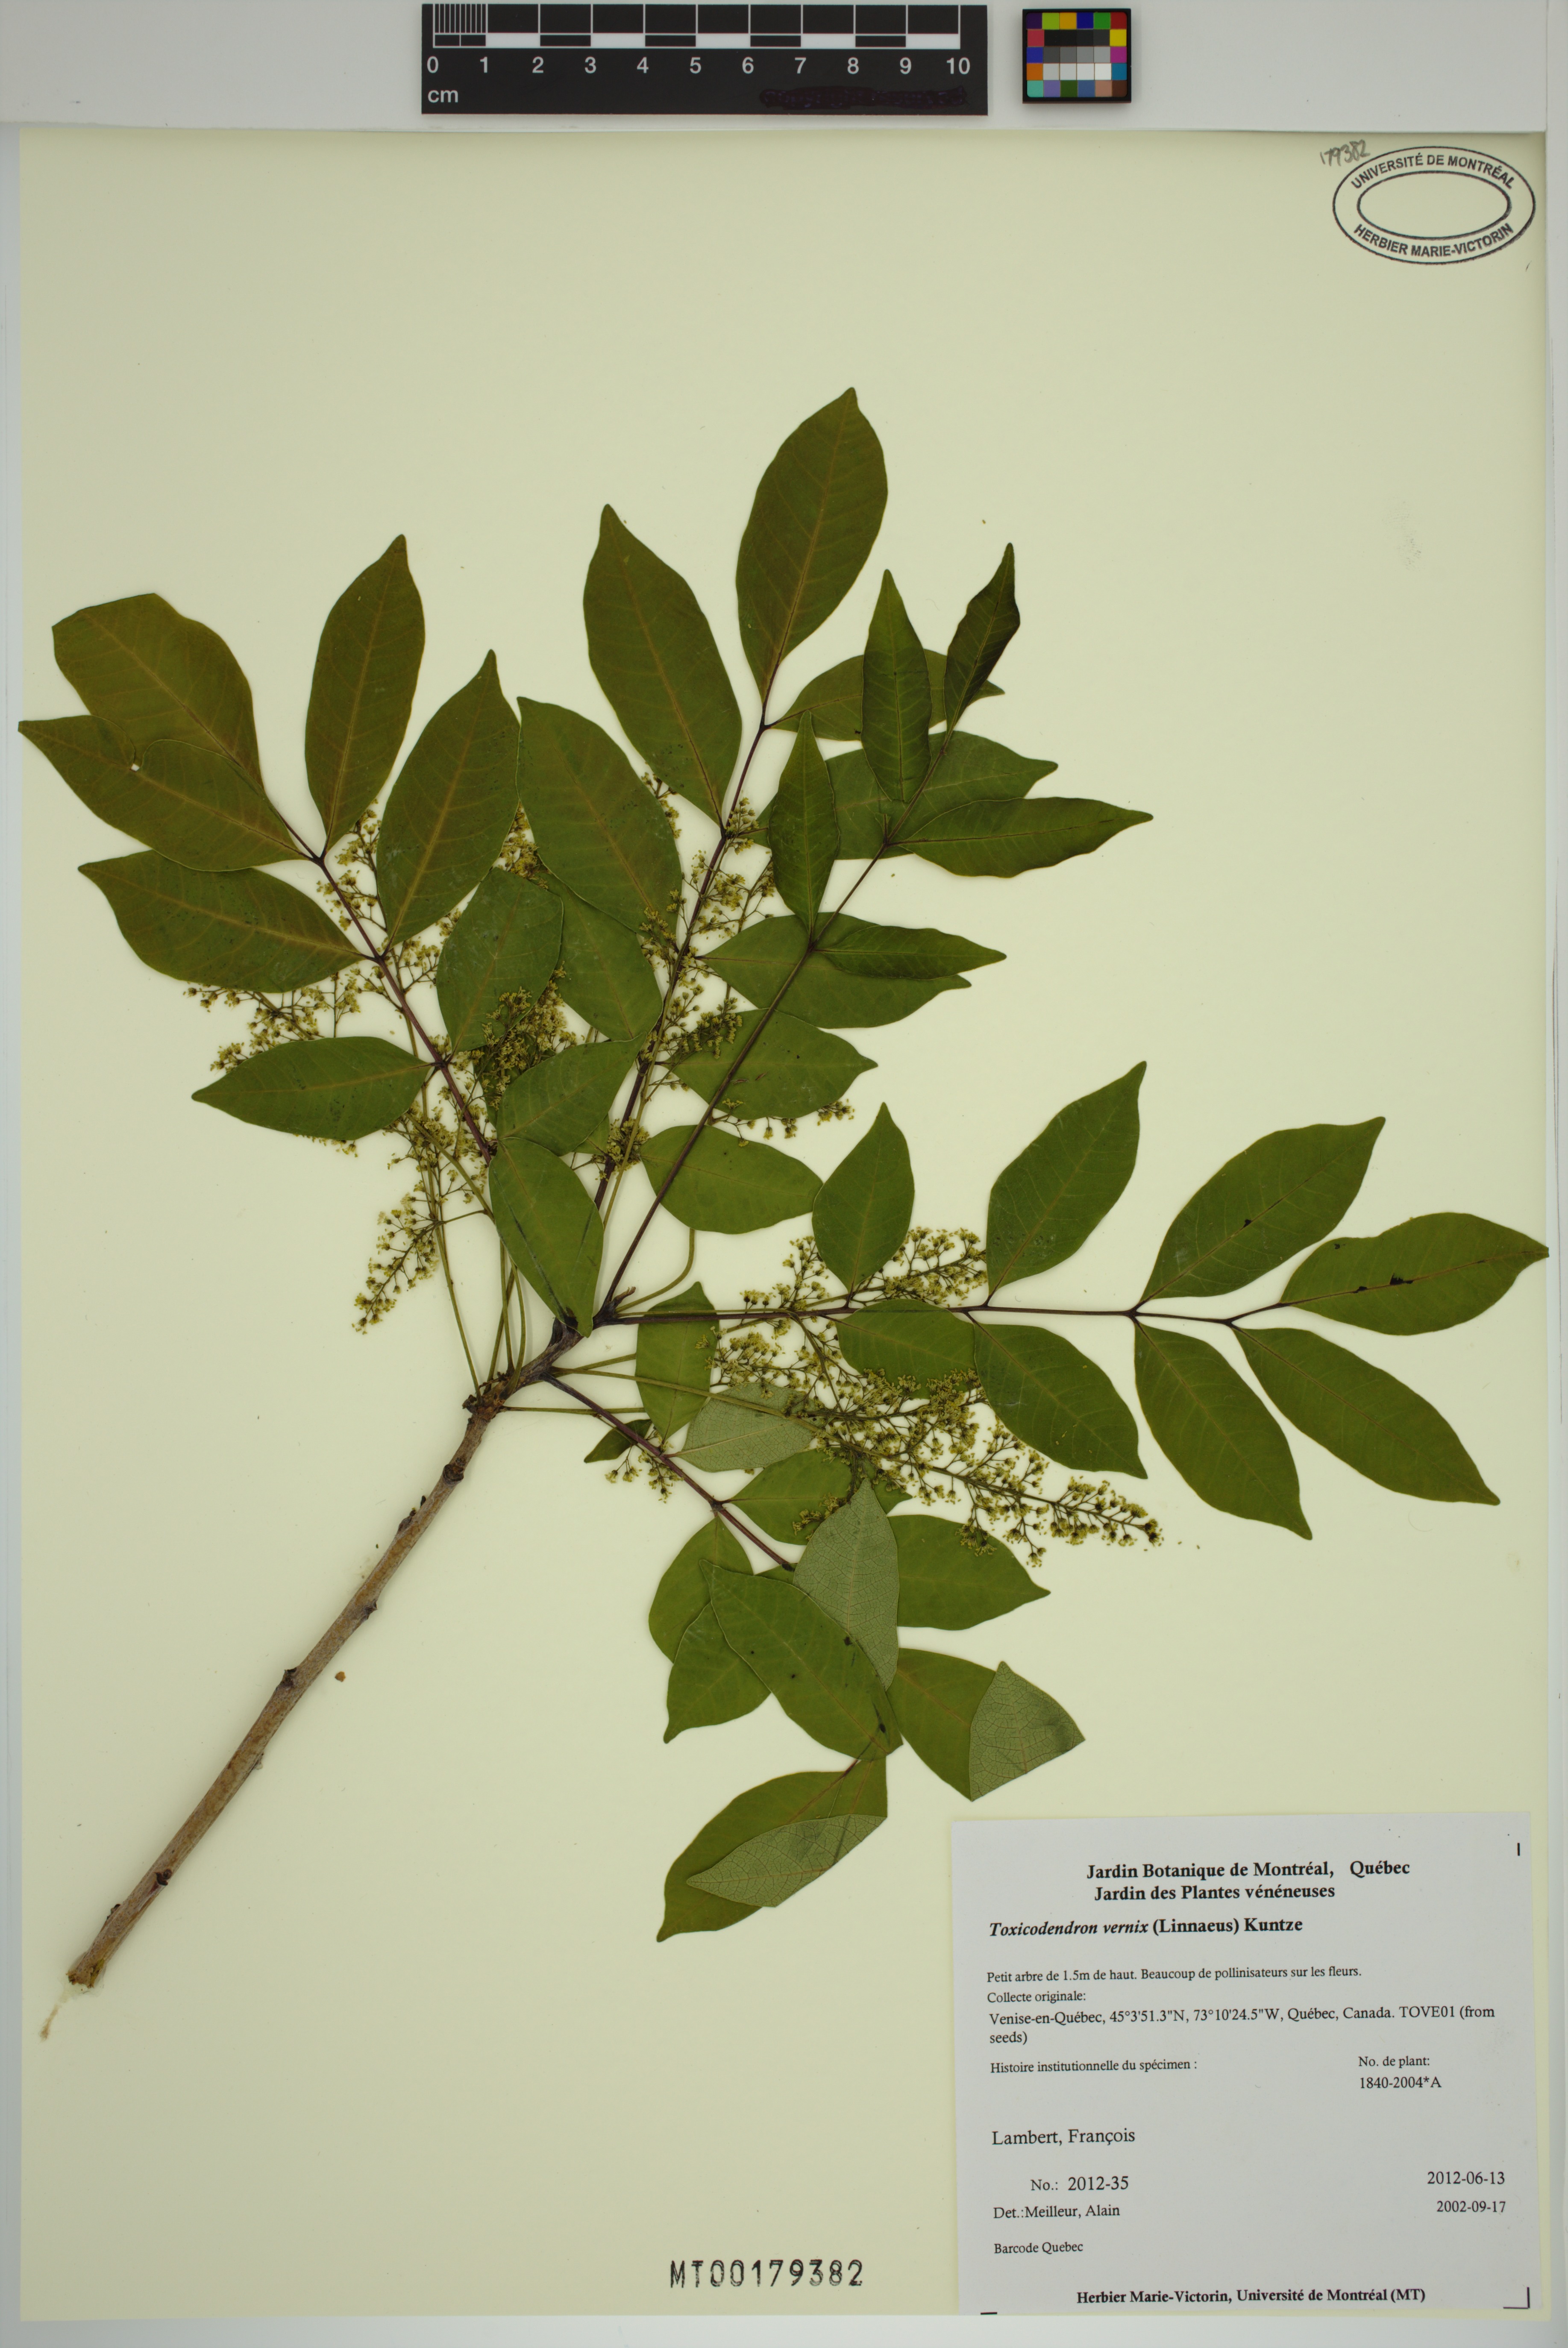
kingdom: Plantae
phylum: Tracheophyta
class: Magnoliopsida
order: Sapindales
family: Anacardiaceae
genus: Toxicodendron
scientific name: Toxicodendron vernix
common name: Poison sumac
